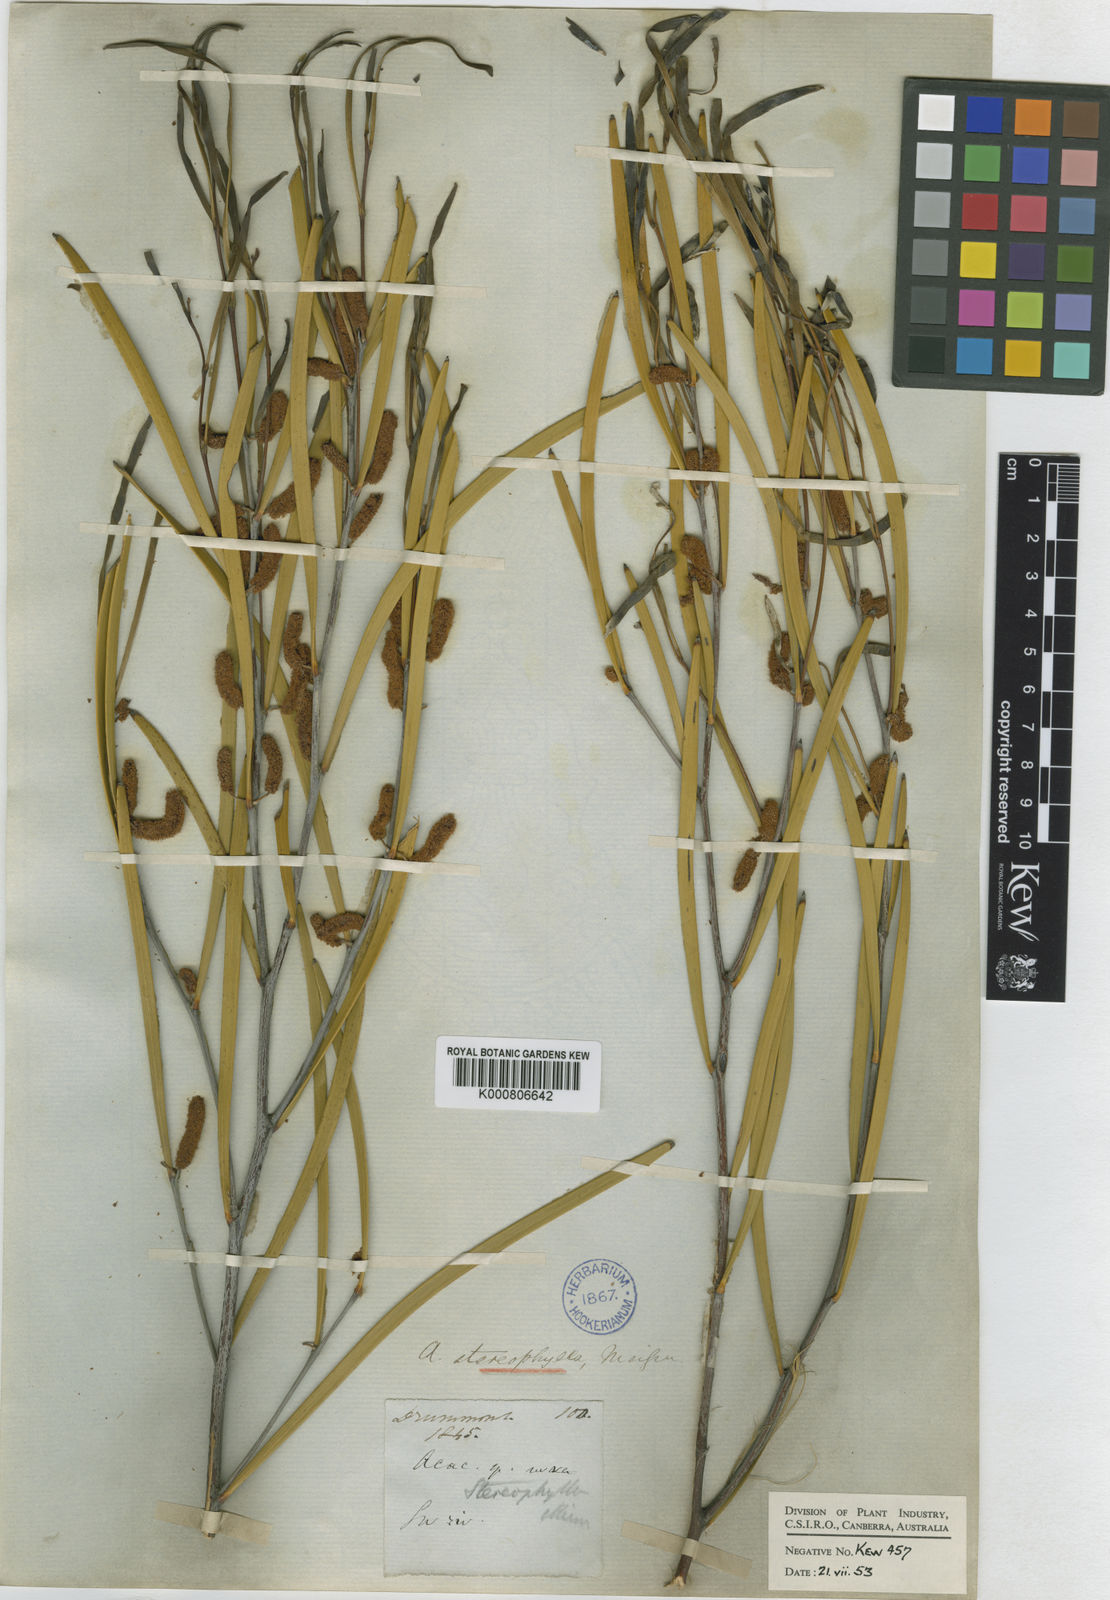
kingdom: Plantae
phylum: Tracheophyta
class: Magnoliopsida
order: Fabales
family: Fabaceae
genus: Acacia
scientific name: Acacia stereophylla
